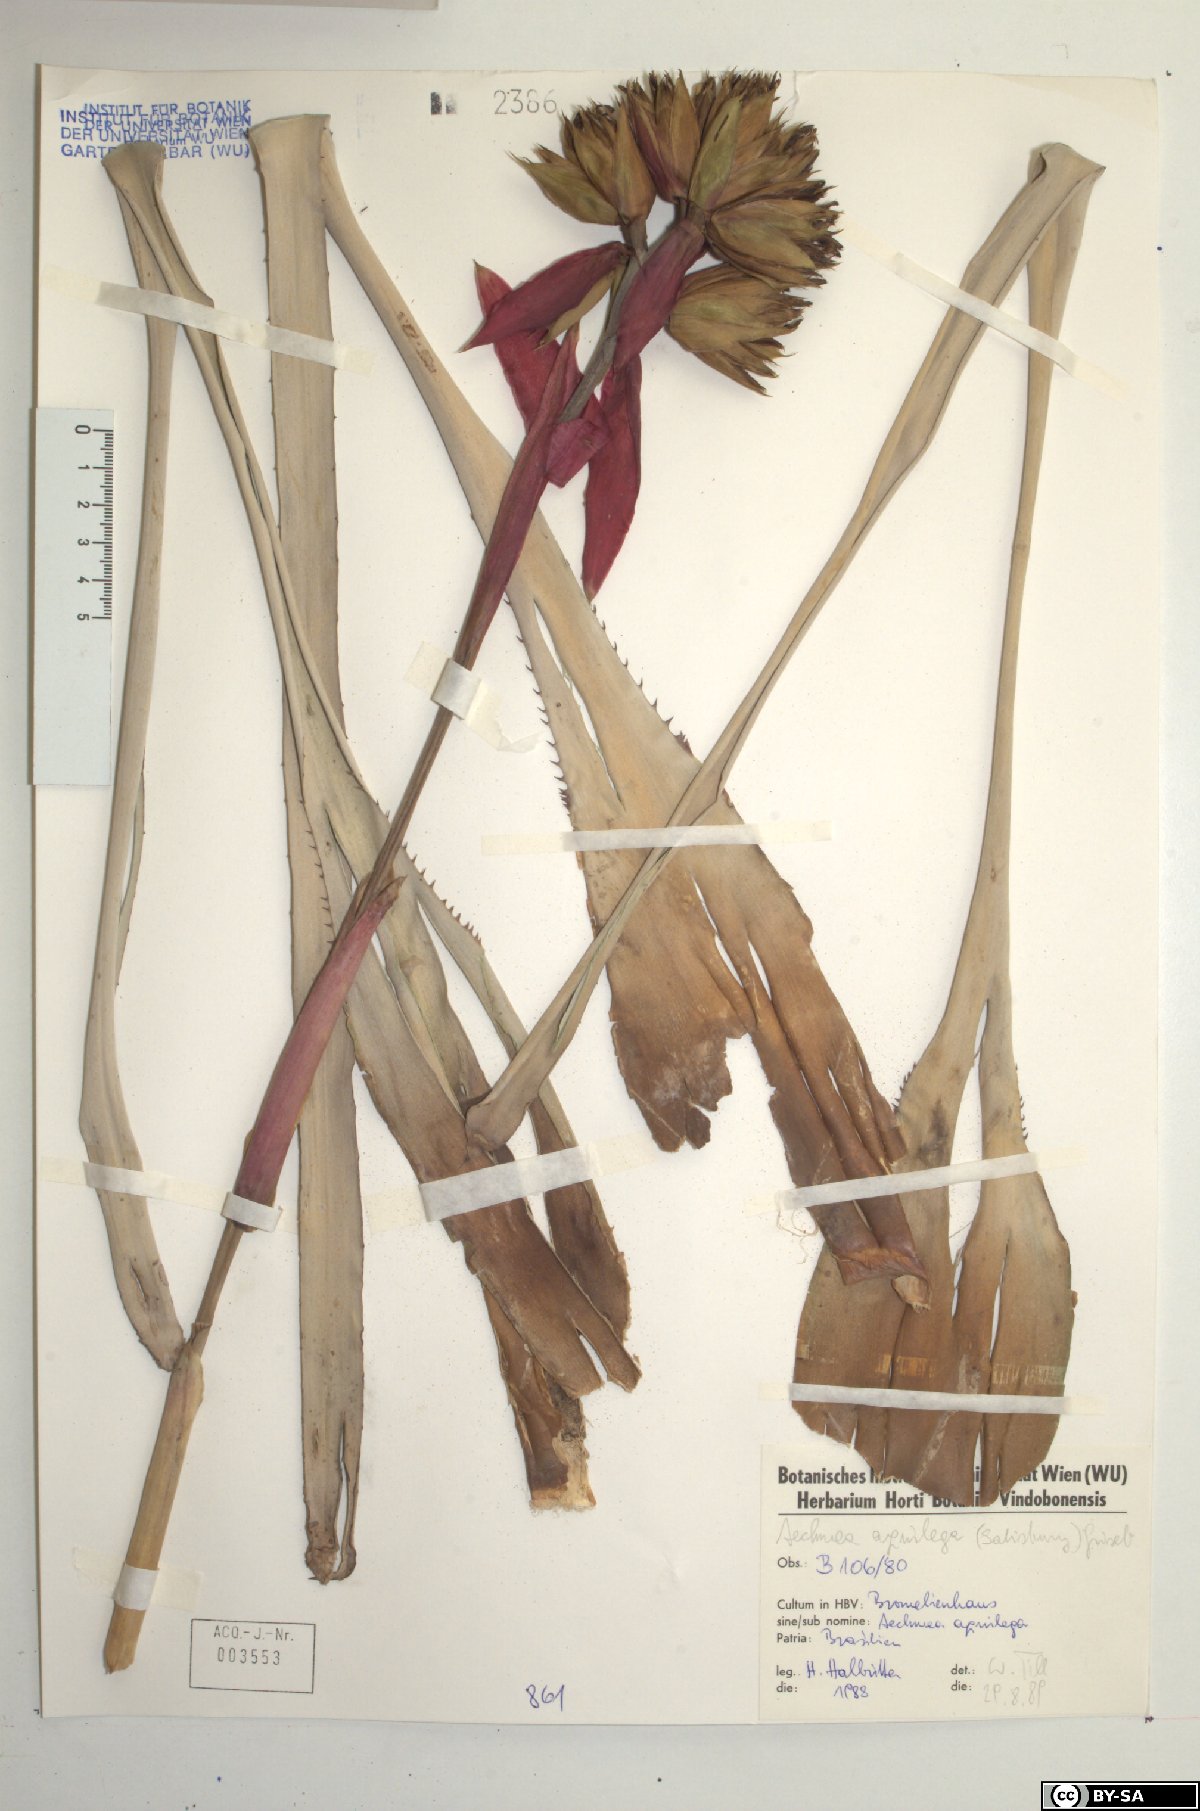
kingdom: Plantae
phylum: Tracheophyta
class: Liliopsida
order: Poales
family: Bromeliaceae
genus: Aechmea
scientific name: Aechmea aquilega
